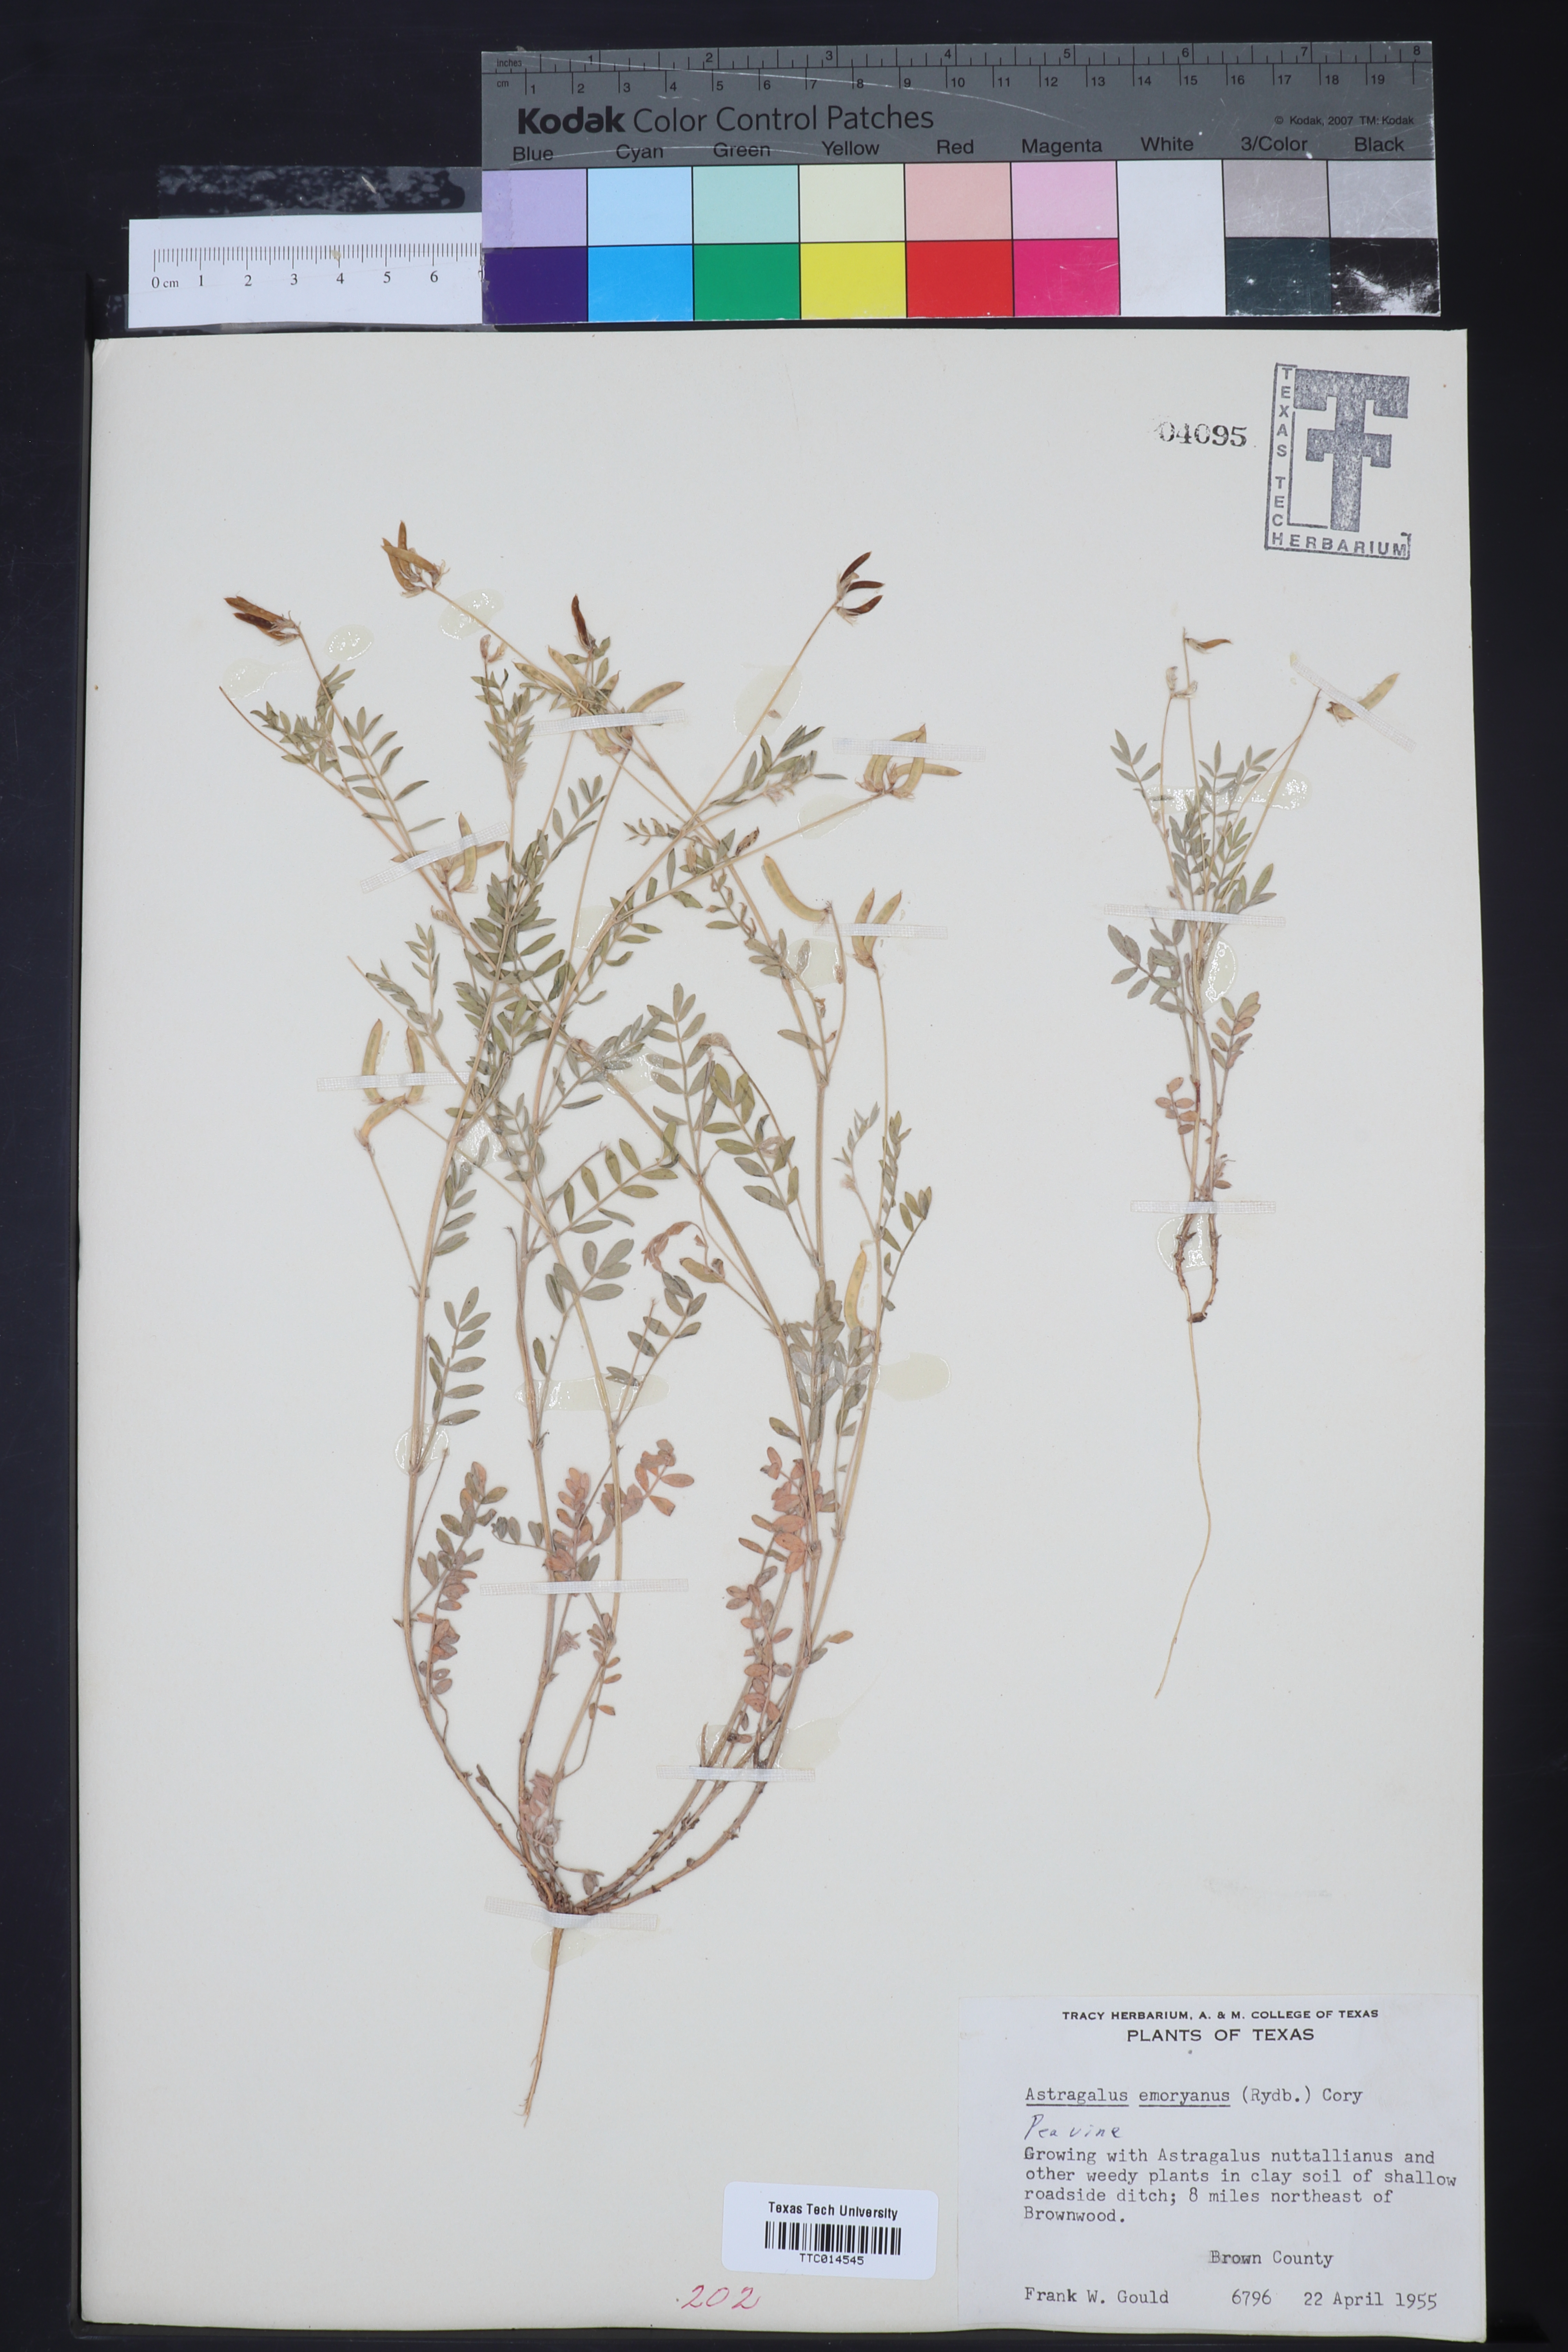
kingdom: Plantae
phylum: Tracheophyta
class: Magnoliopsida
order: Fabales
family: Fabaceae
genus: Astragalus
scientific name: Astragalus emoryanus
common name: Emory's milk-vetch
